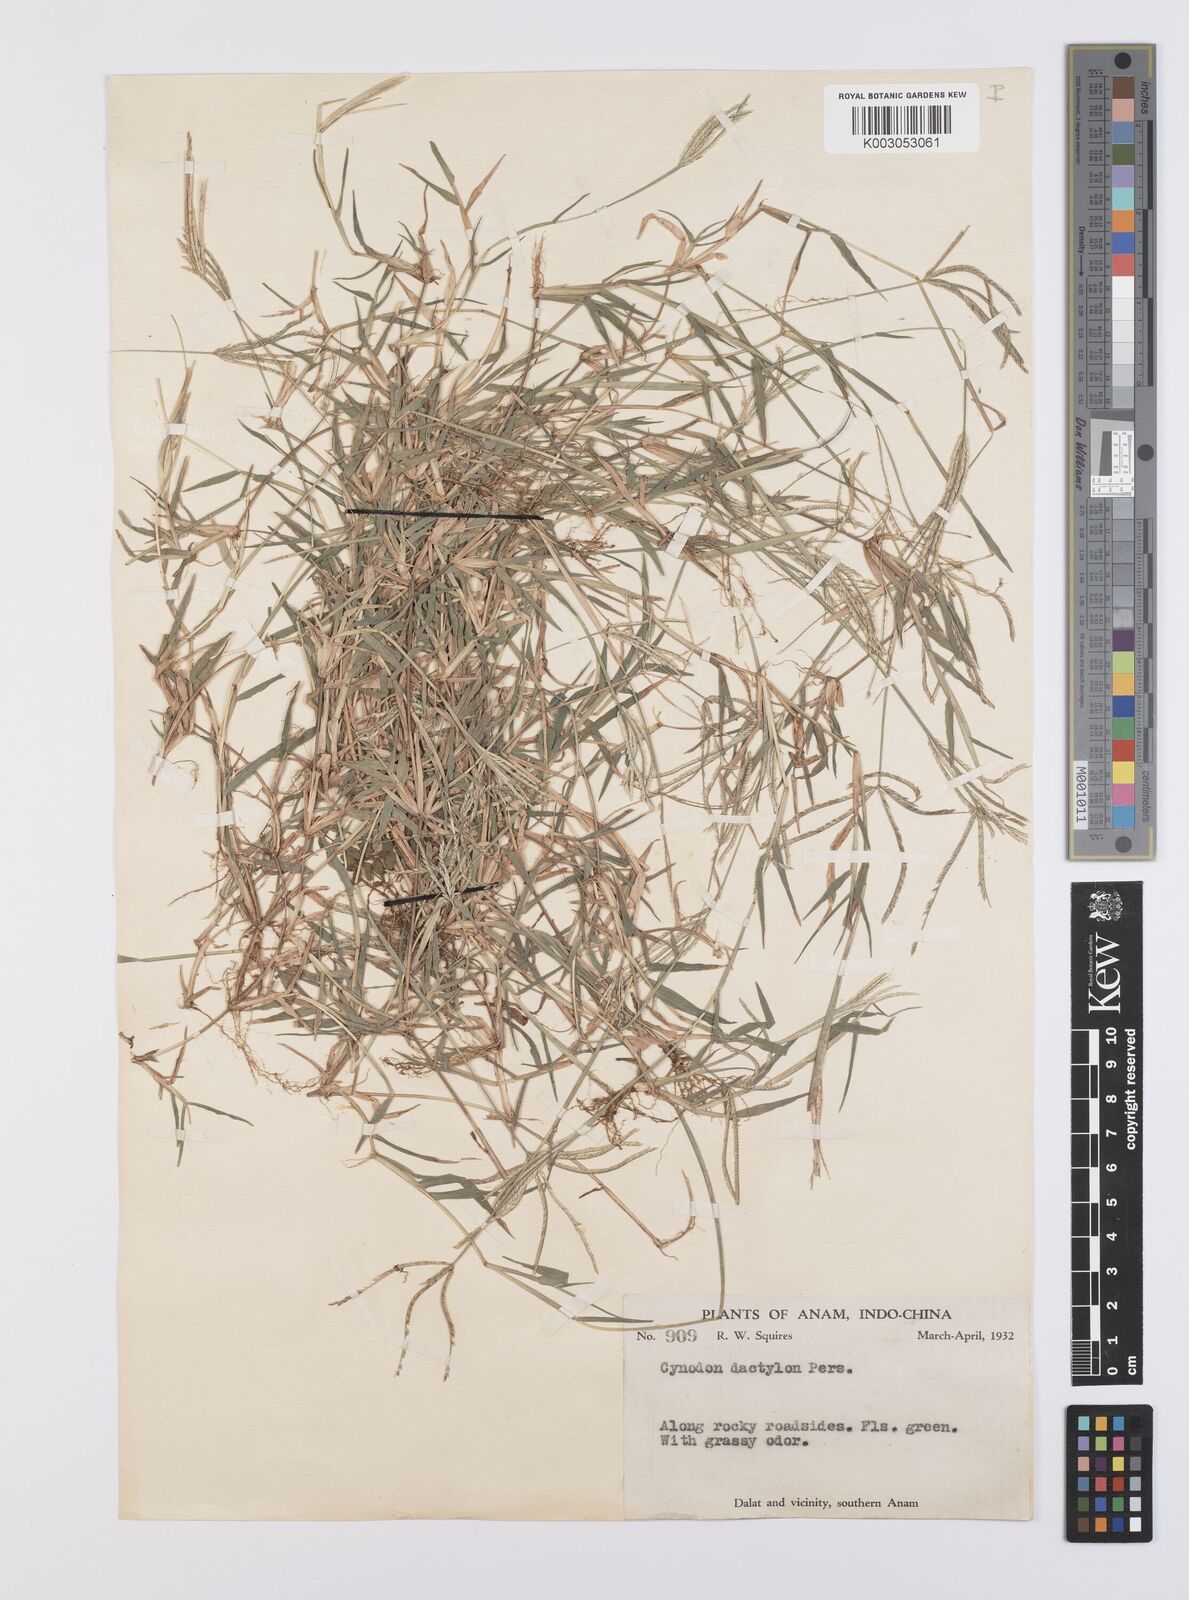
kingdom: Plantae
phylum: Tracheophyta
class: Liliopsida
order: Poales
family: Poaceae
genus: Cynodon
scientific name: Cynodon radiatus
